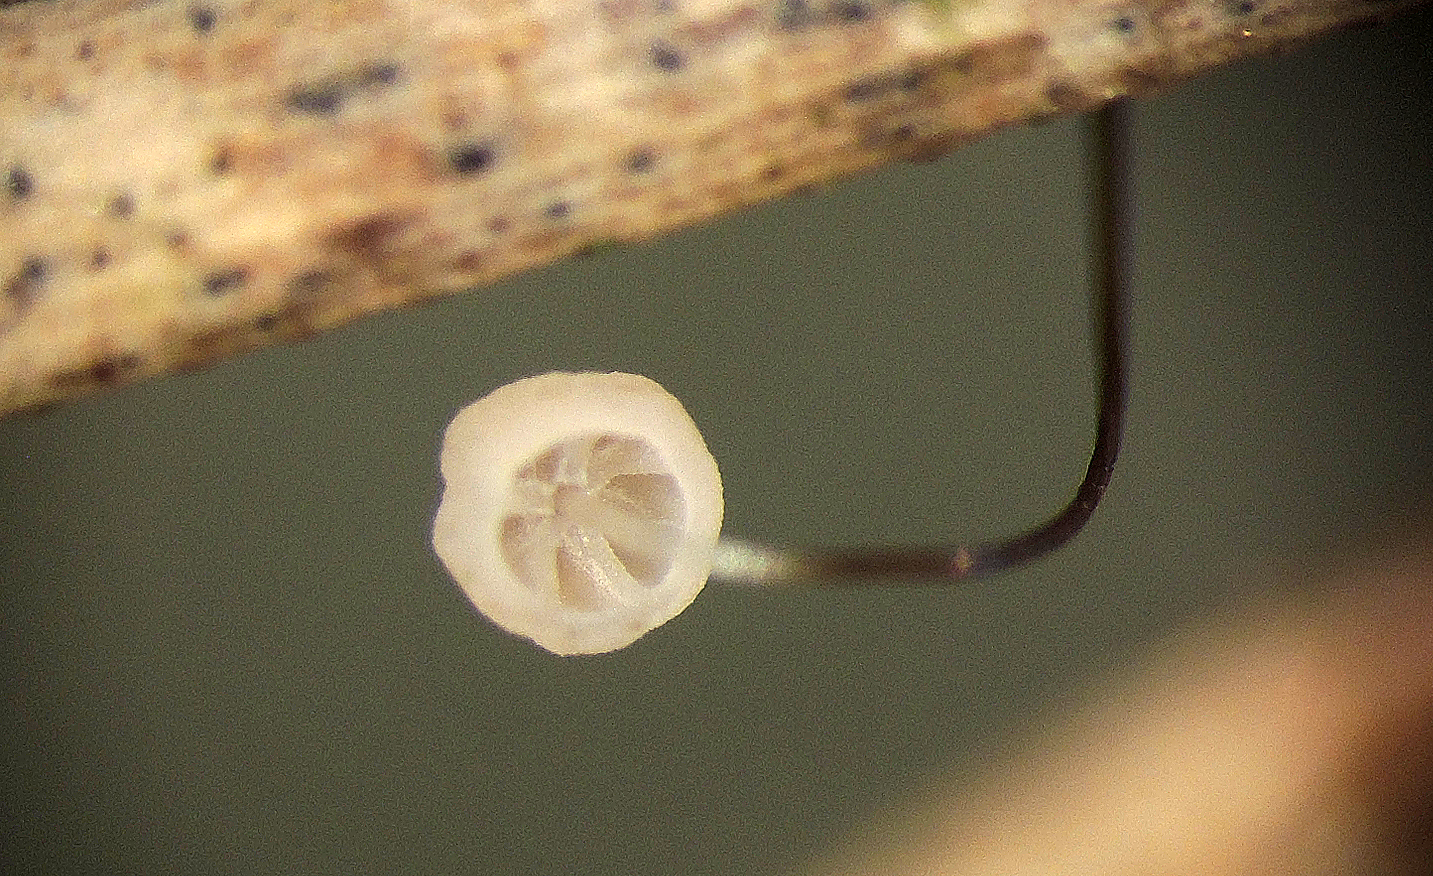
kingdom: Fungi
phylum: Basidiomycota
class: Agaricomycetes
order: Agaricales
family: Marasmiaceae
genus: Marasmius
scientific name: Marasmius limosus
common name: kær-bruskhat
